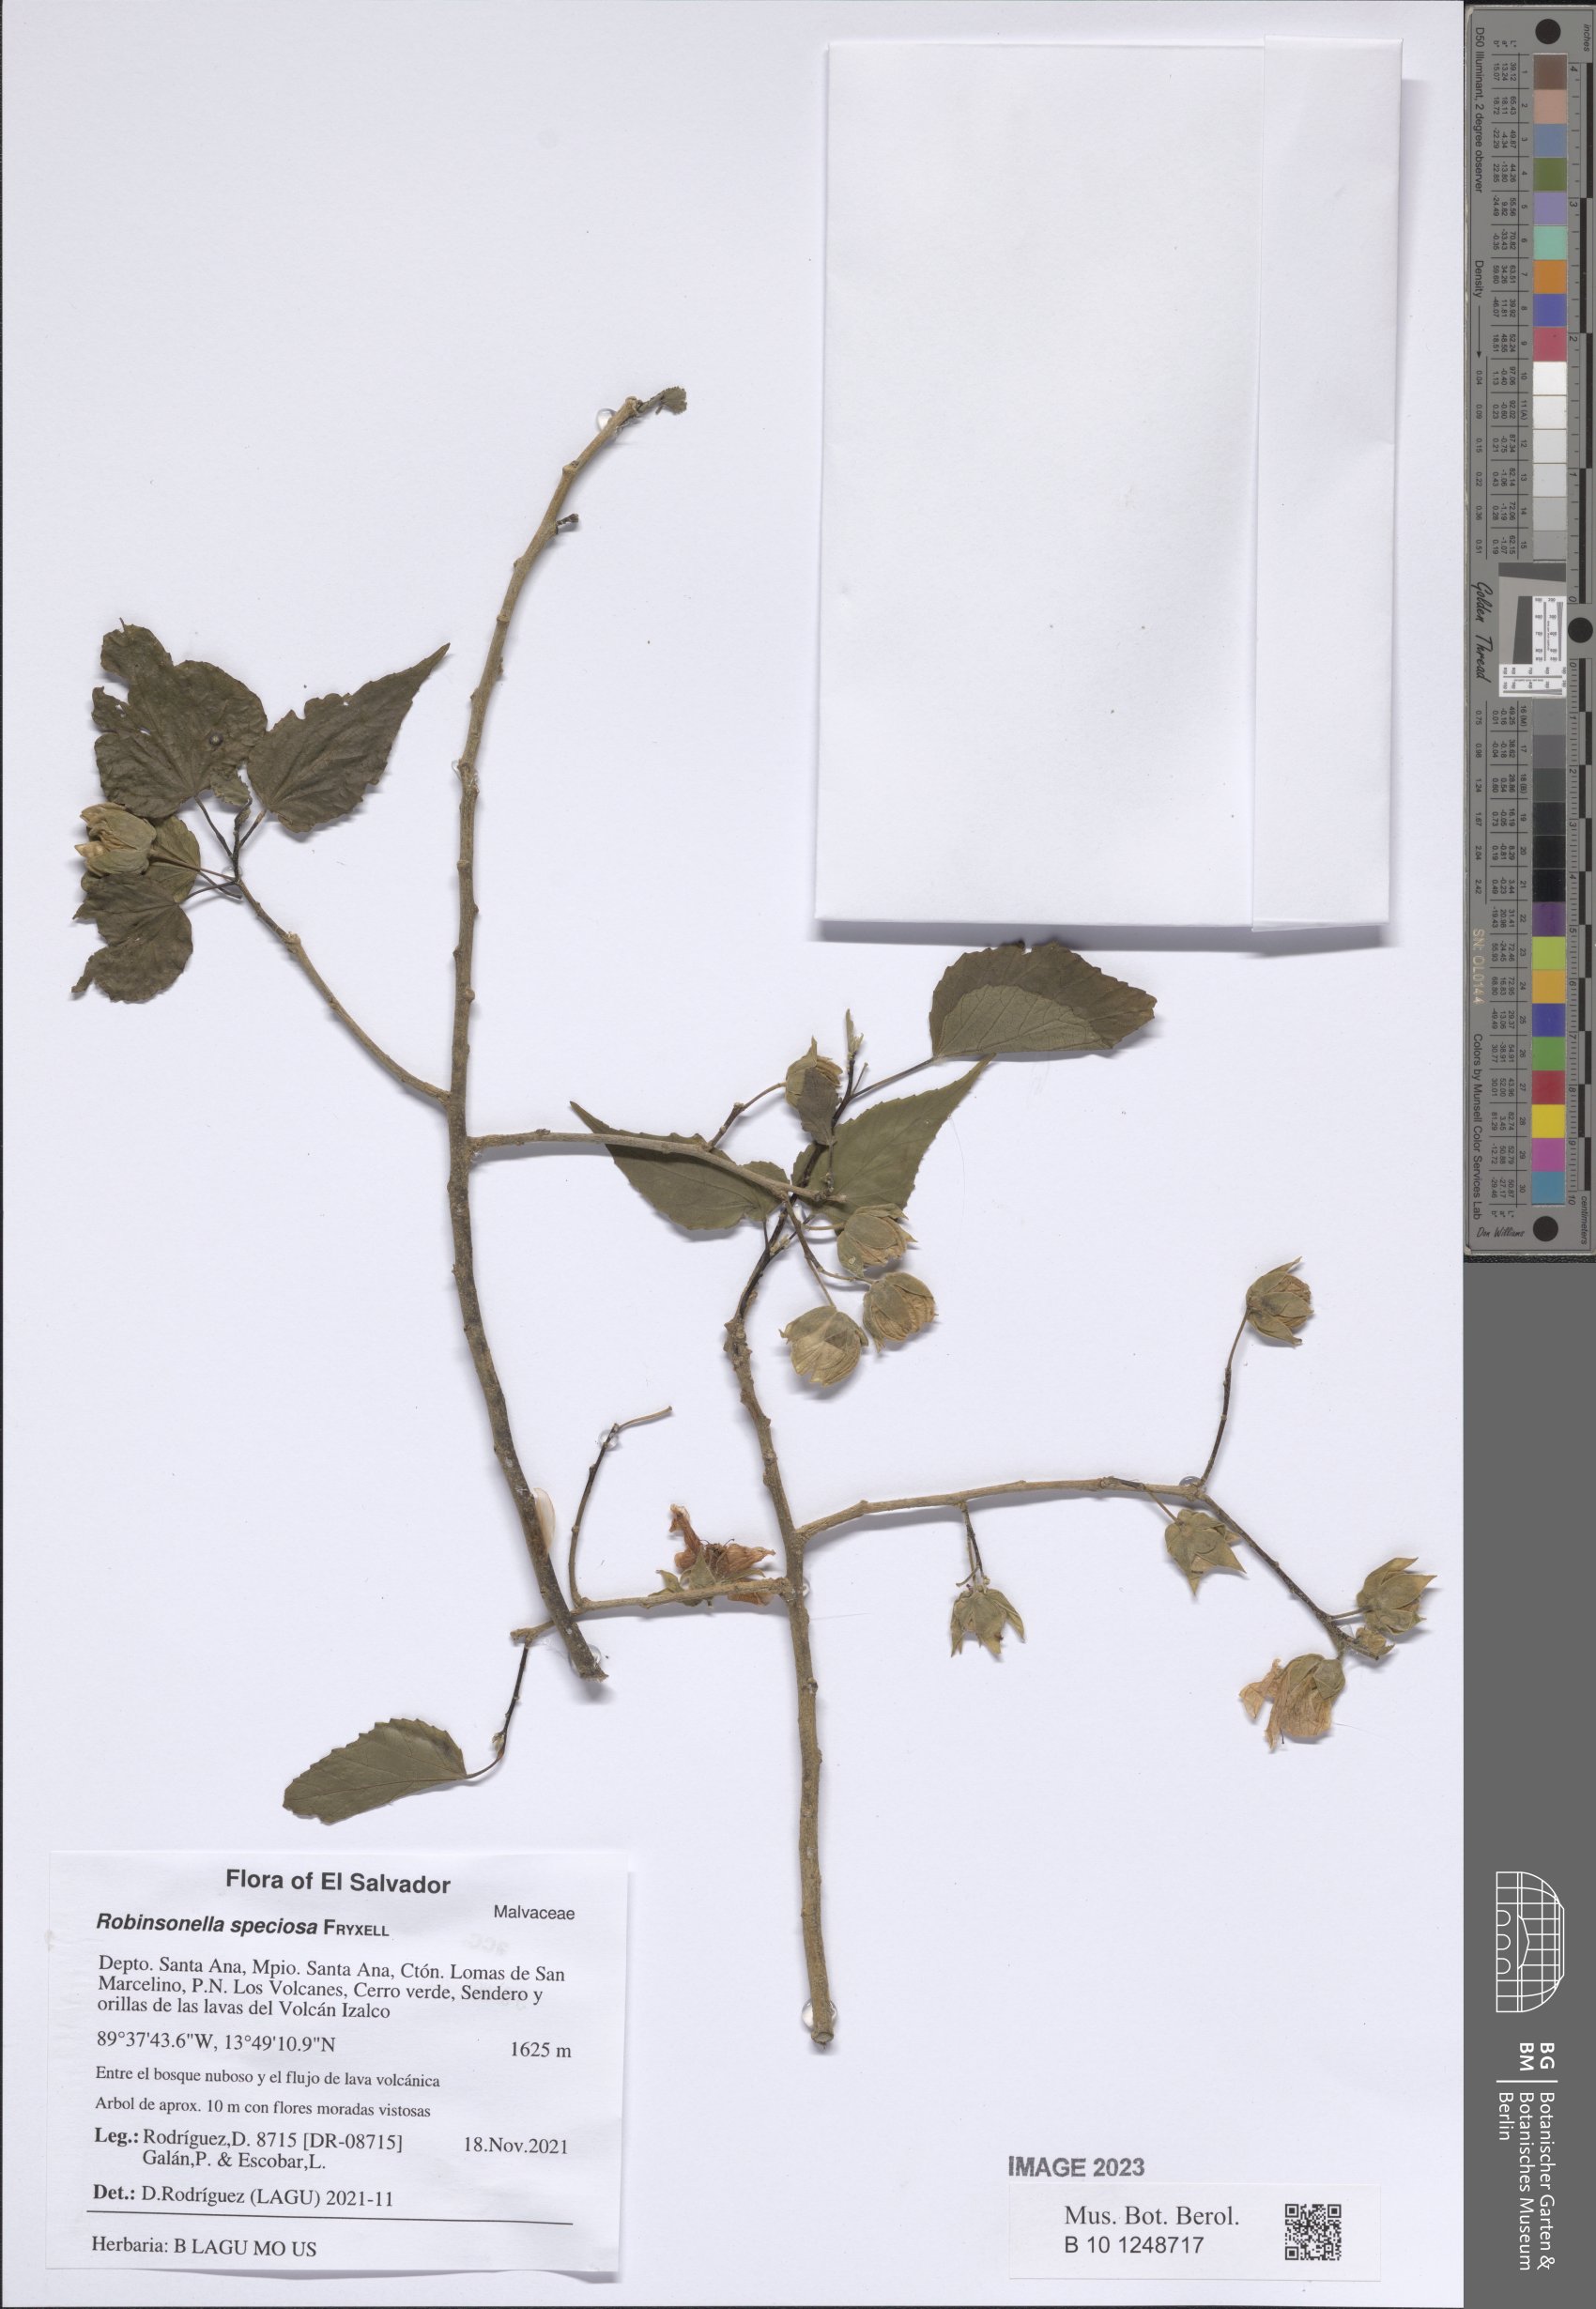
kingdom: Plantae
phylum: Tracheophyta
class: Magnoliopsida
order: Malvales
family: Malvaceae
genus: Robinsonella
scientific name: Robinsonella speciosa
